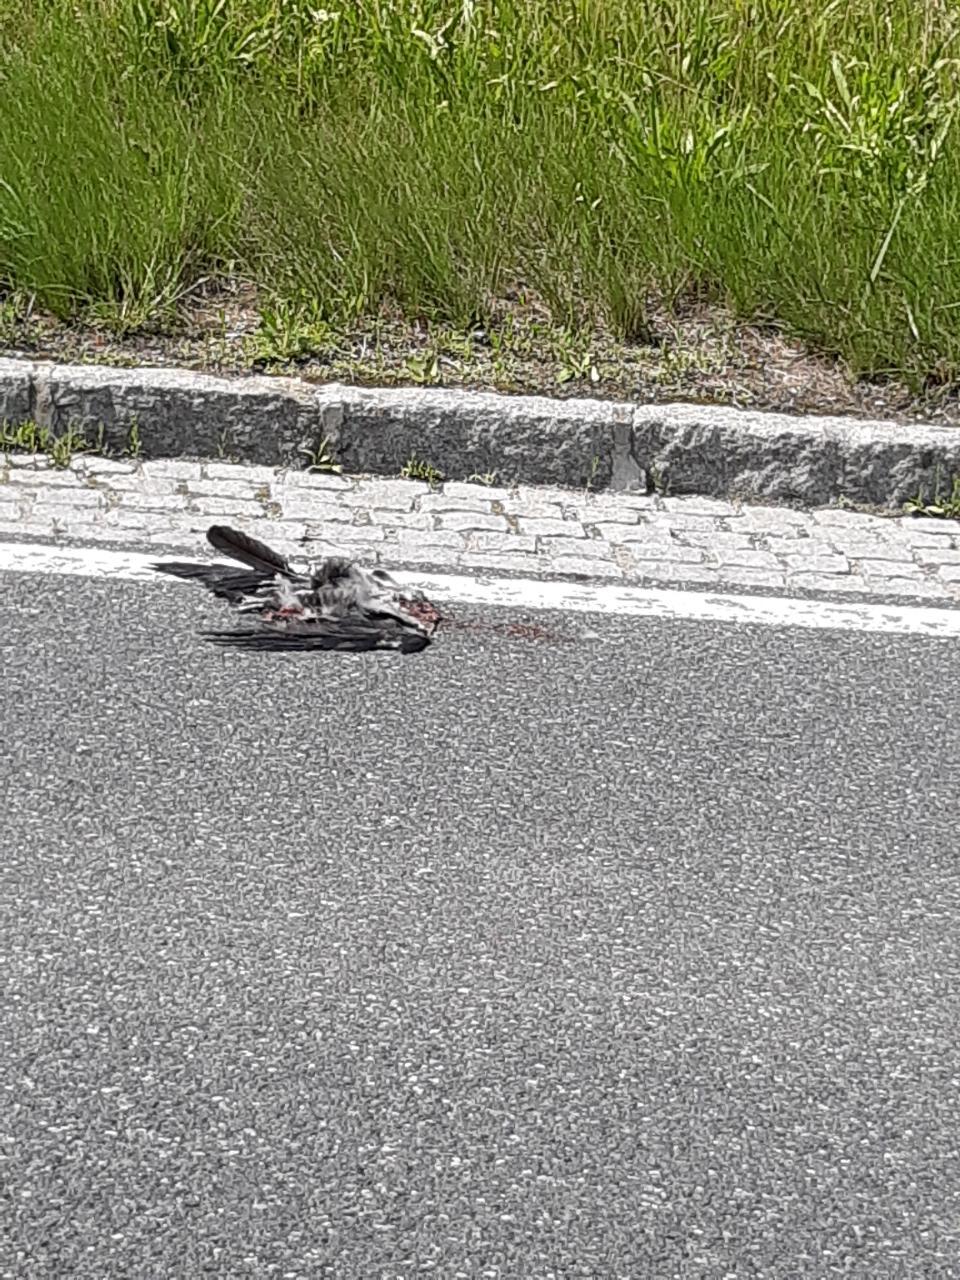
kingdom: Animalia
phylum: Chordata
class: Aves
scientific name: Aves
